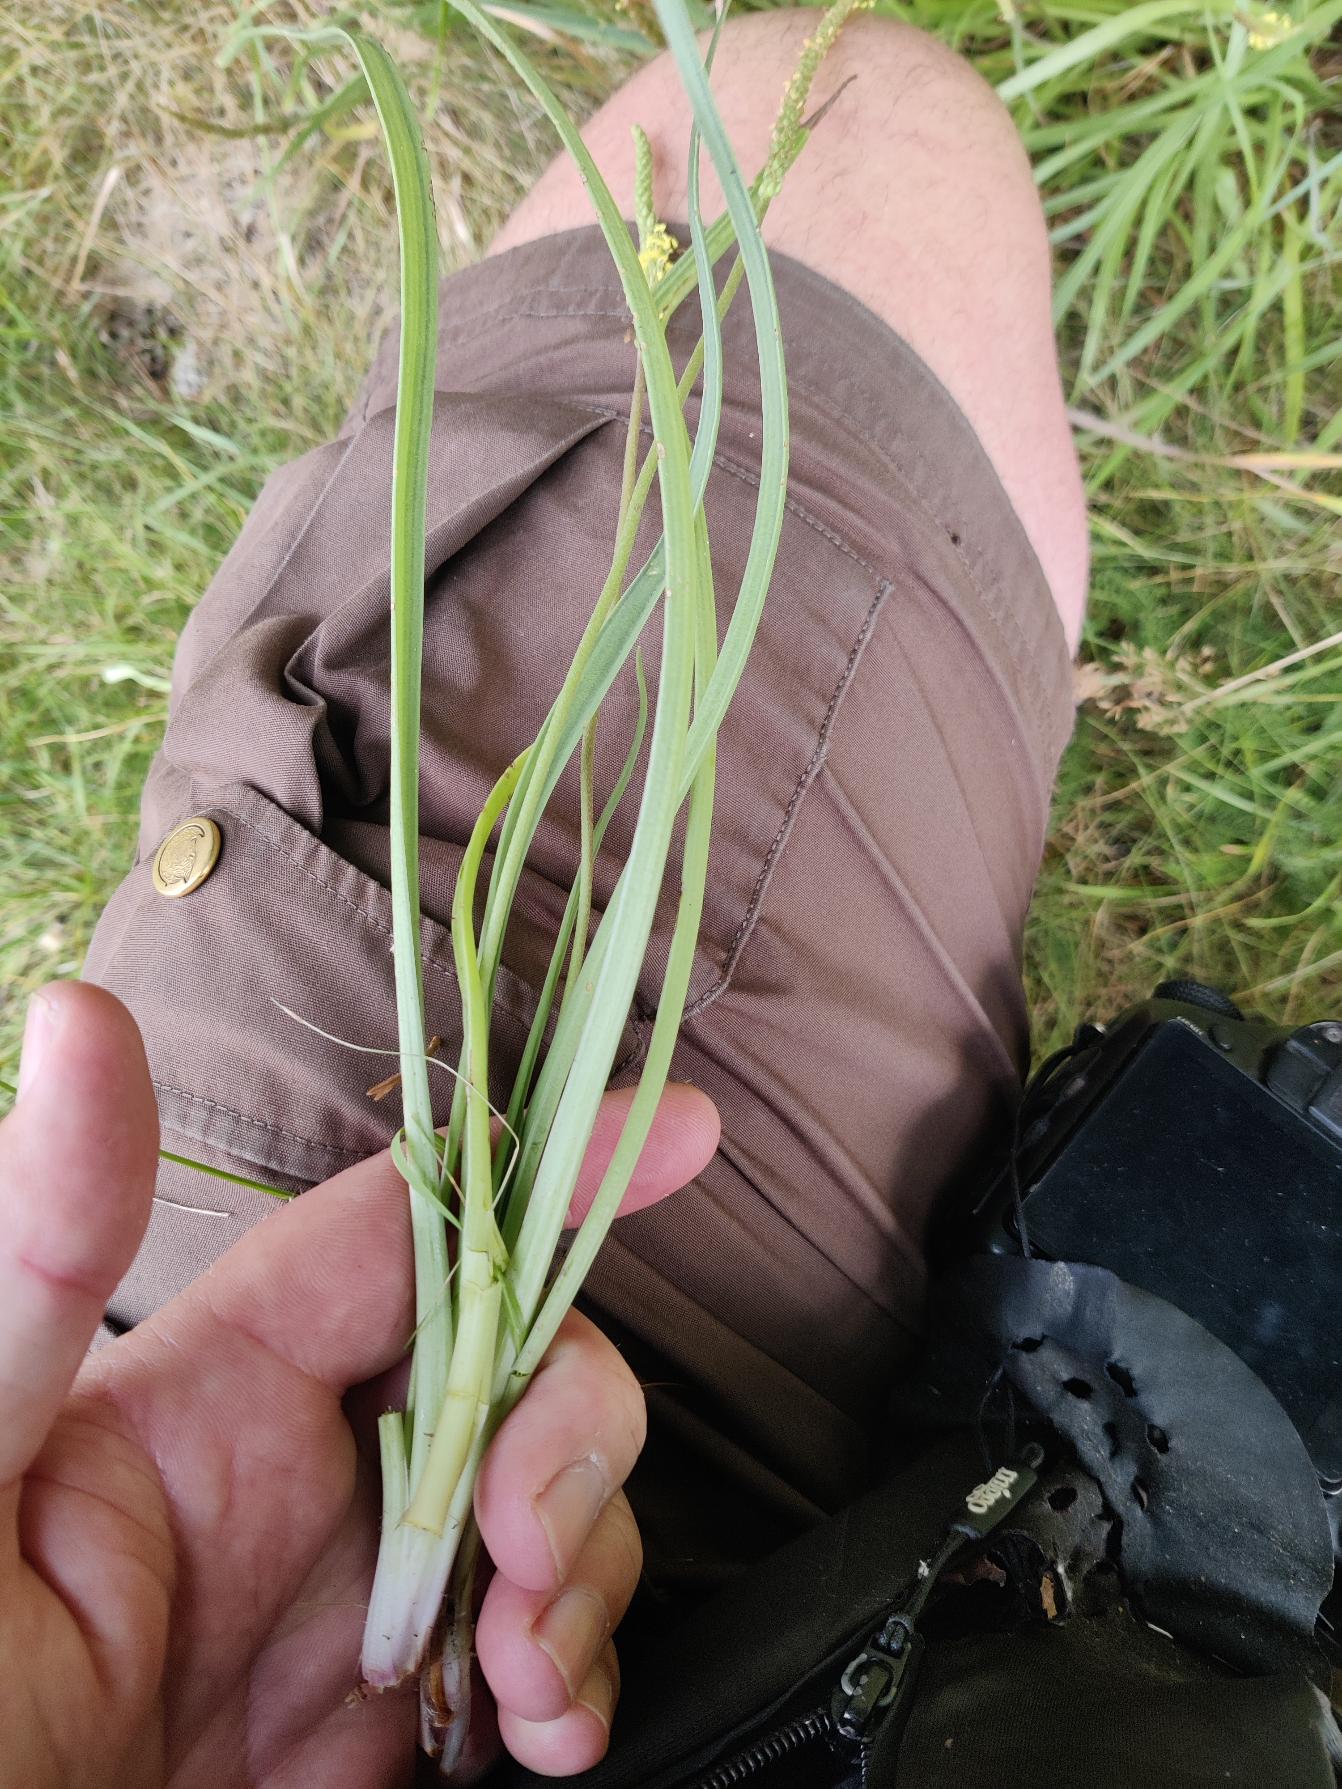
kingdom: Plantae
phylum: Tracheophyta
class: Magnoliopsida
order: Lamiales
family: Plantaginaceae
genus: Plantago
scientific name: Plantago maritima
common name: Strand-vejbred
